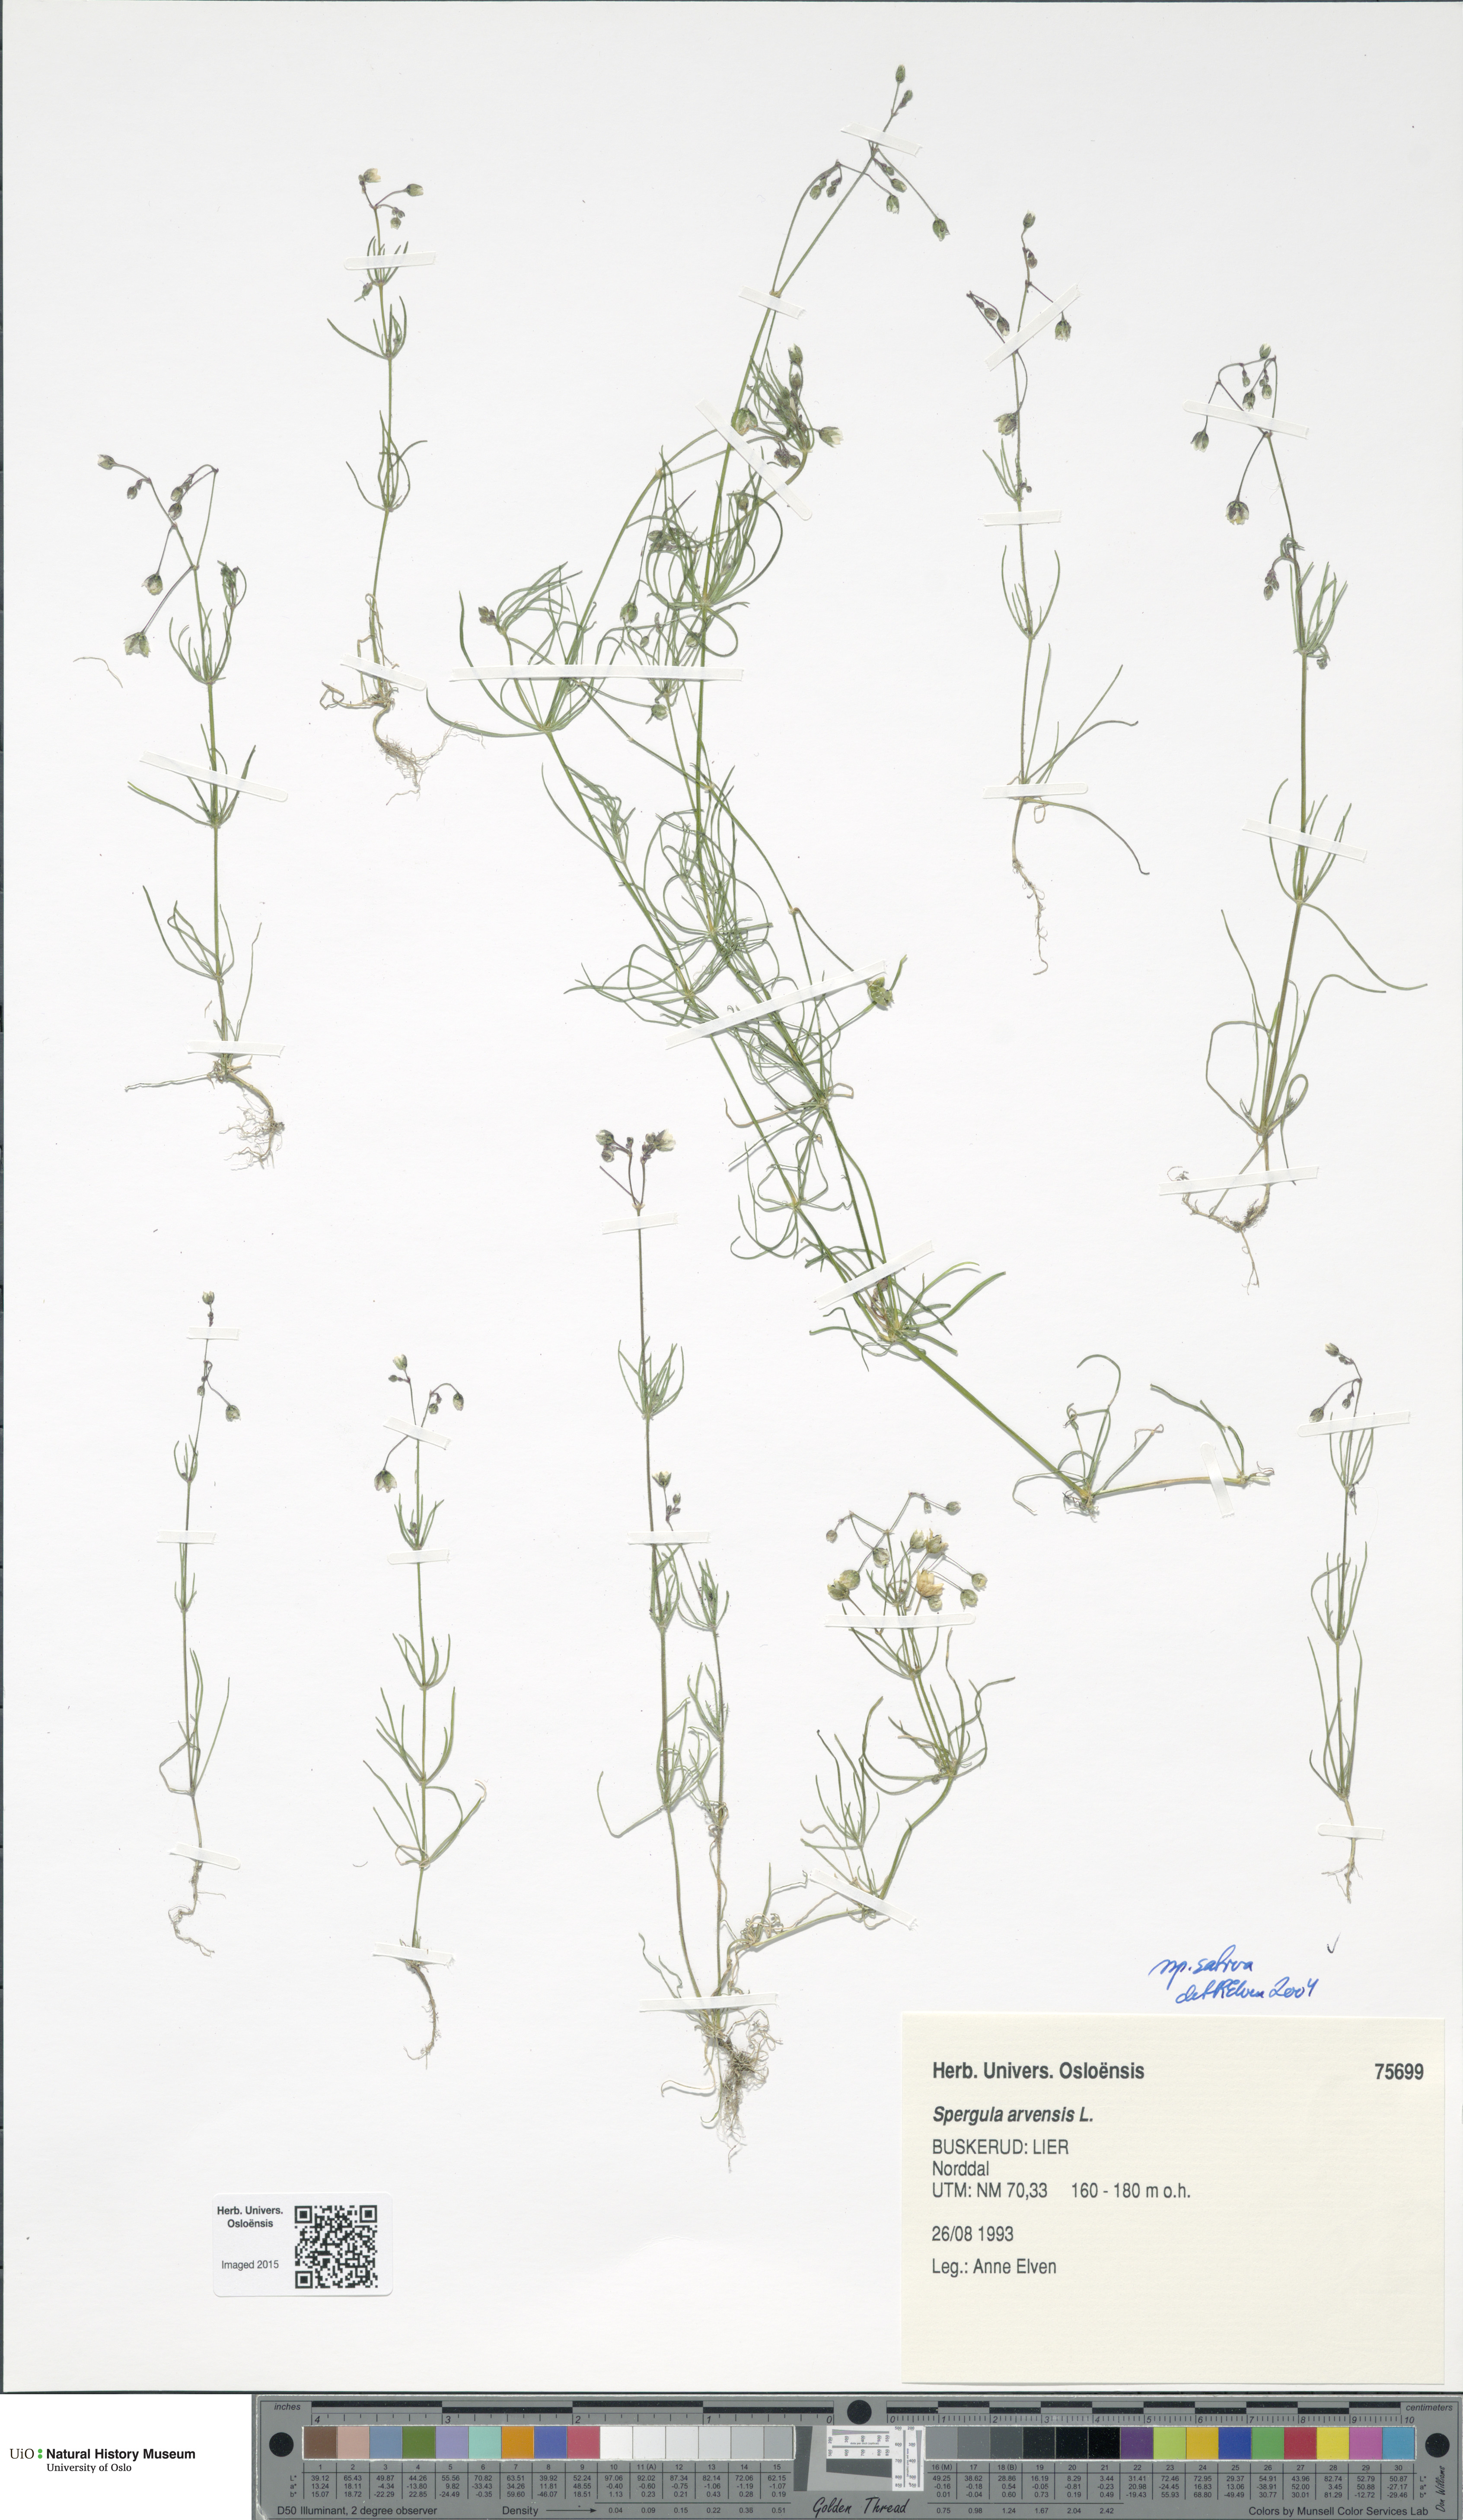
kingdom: Plantae
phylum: Tracheophyta
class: Magnoliopsida
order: Caryophyllales
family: Caryophyllaceae
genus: Spergula
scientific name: Spergula arvensis
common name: Corn spurrey
